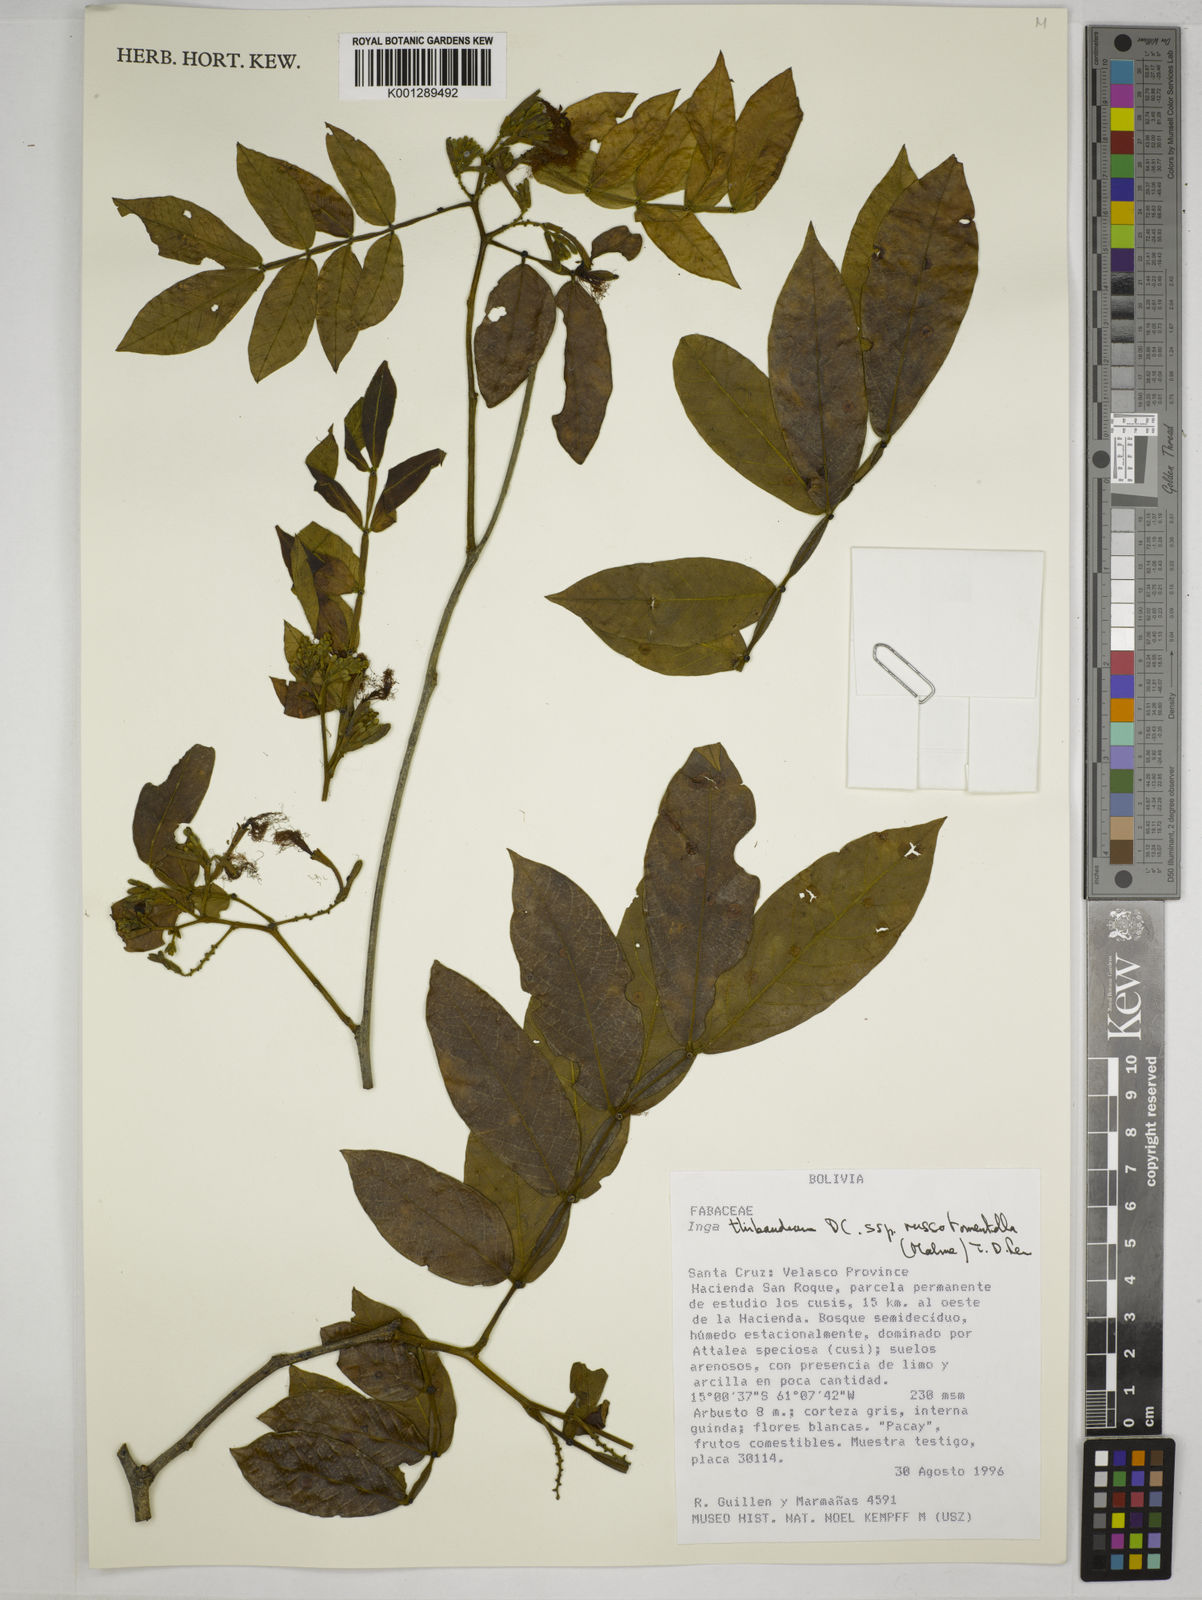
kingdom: Plantae
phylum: Tracheophyta
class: Magnoliopsida
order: Fabales
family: Fabaceae
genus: Inga
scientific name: Inga thibaudiana
